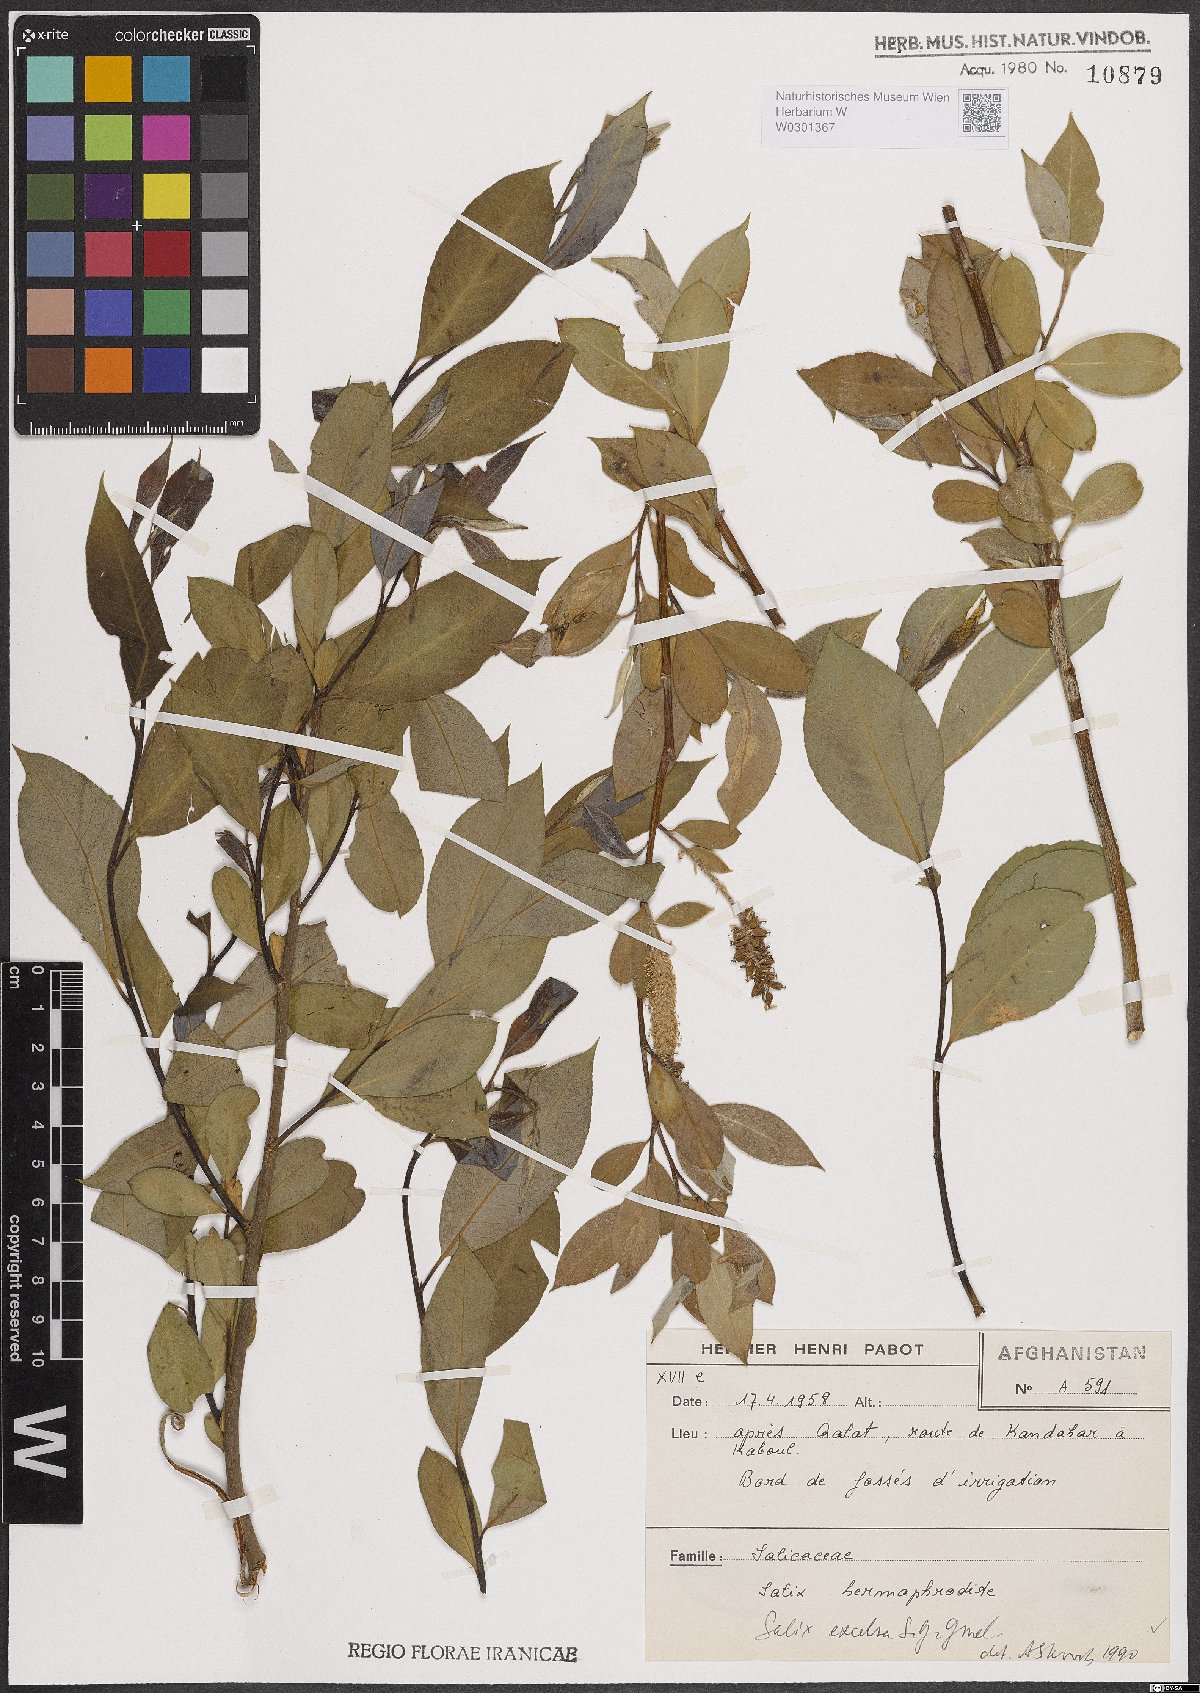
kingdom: Plantae
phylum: Tracheophyta
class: Magnoliopsida
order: Malpighiales
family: Salicaceae
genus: Salix
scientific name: Salix excelsa
